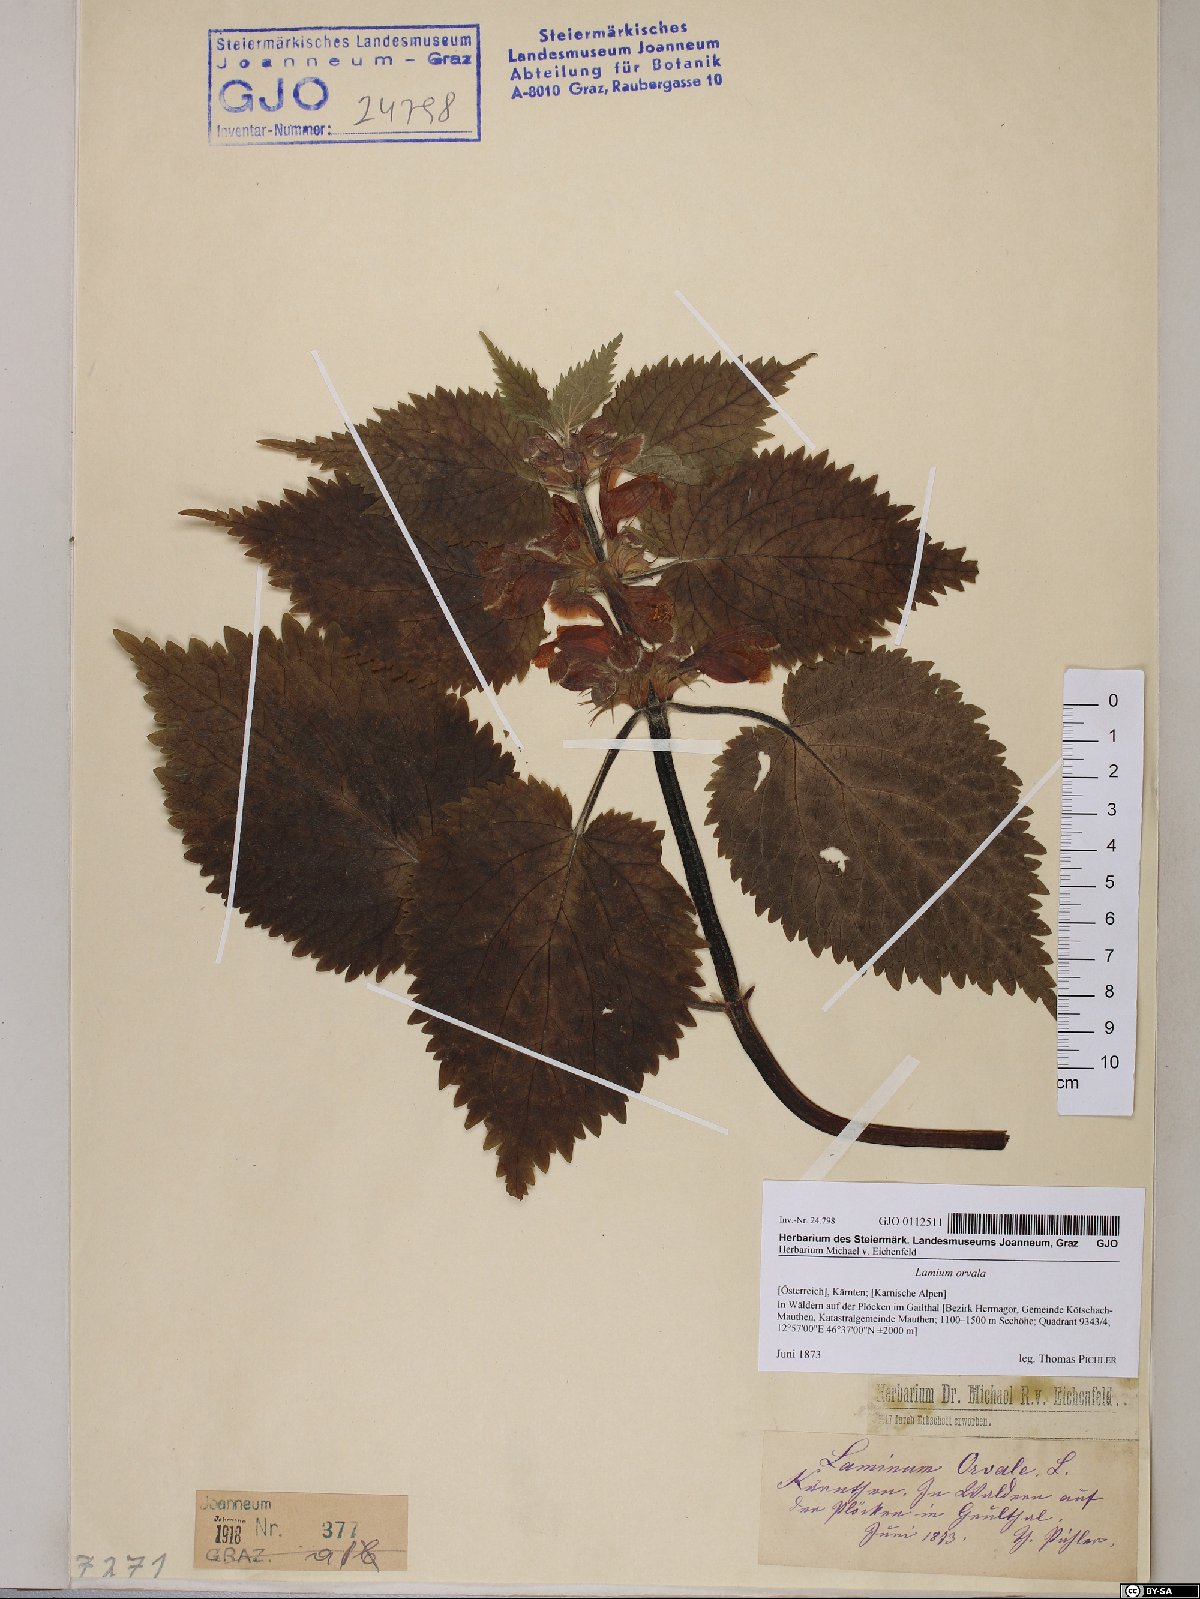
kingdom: Plantae
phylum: Tracheophyta
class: Magnoliopsida
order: Lamiales
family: Lamiaceae
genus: Lamium
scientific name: Lamium orvala
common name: Balm-leaved archangel
